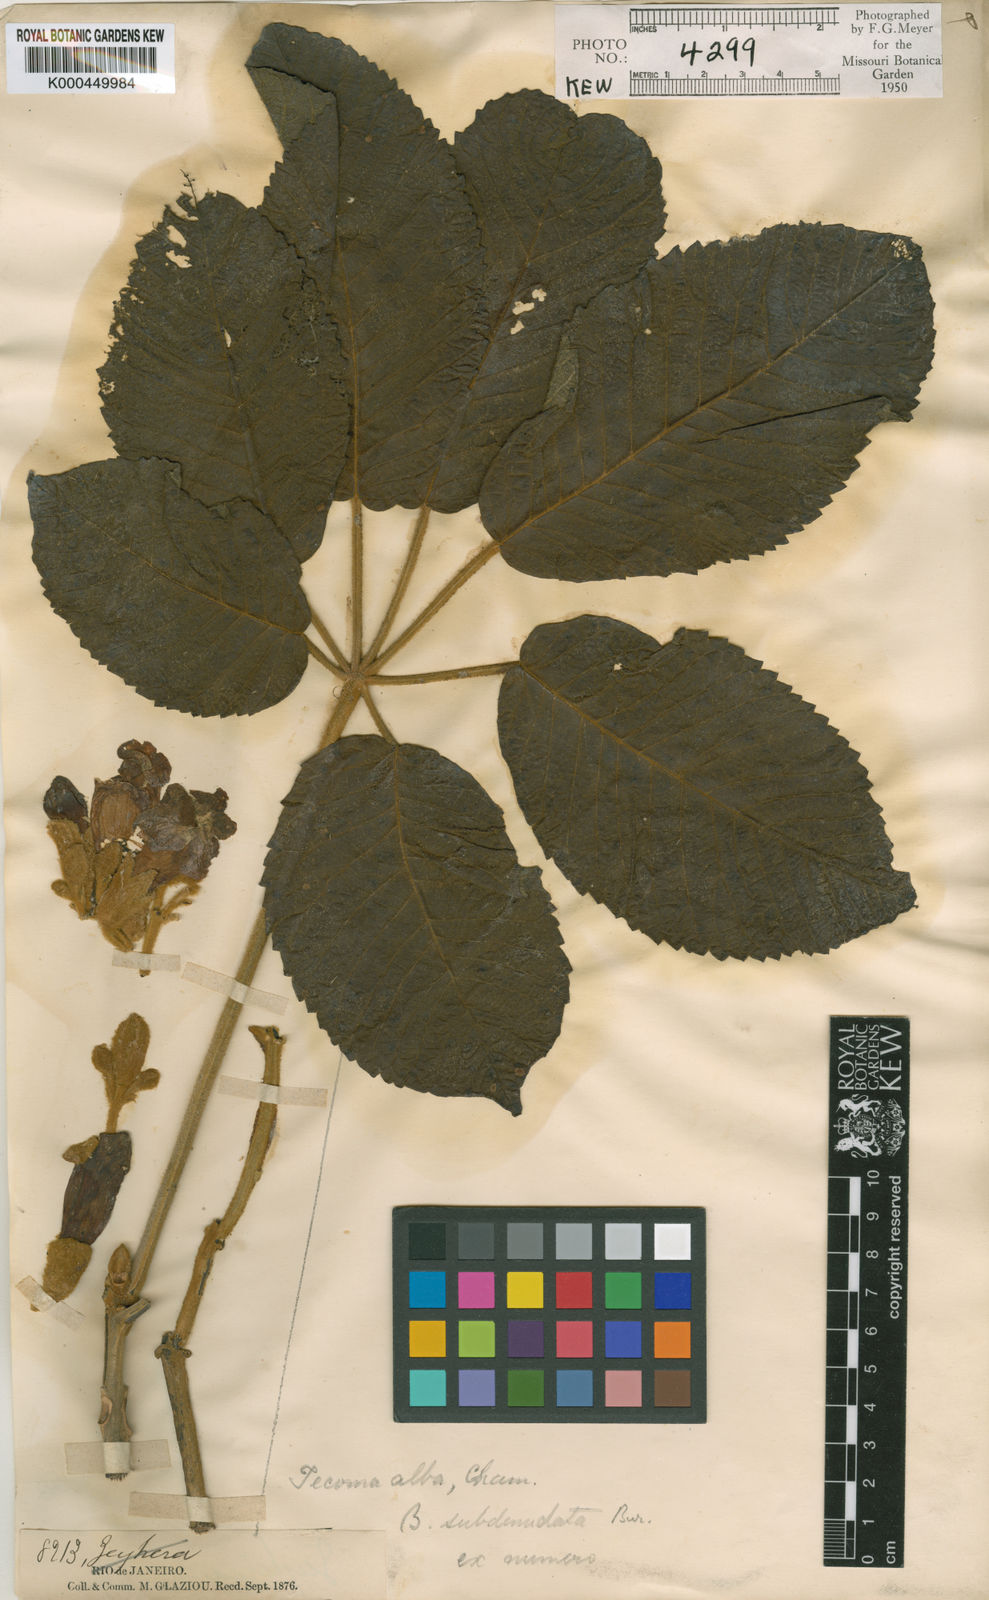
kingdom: Plantae
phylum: Tracheophyta
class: Magnoliopsida
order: Lamiales
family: Bignoniaceae
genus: Handroanthus
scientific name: Handroanthus vellosoi
